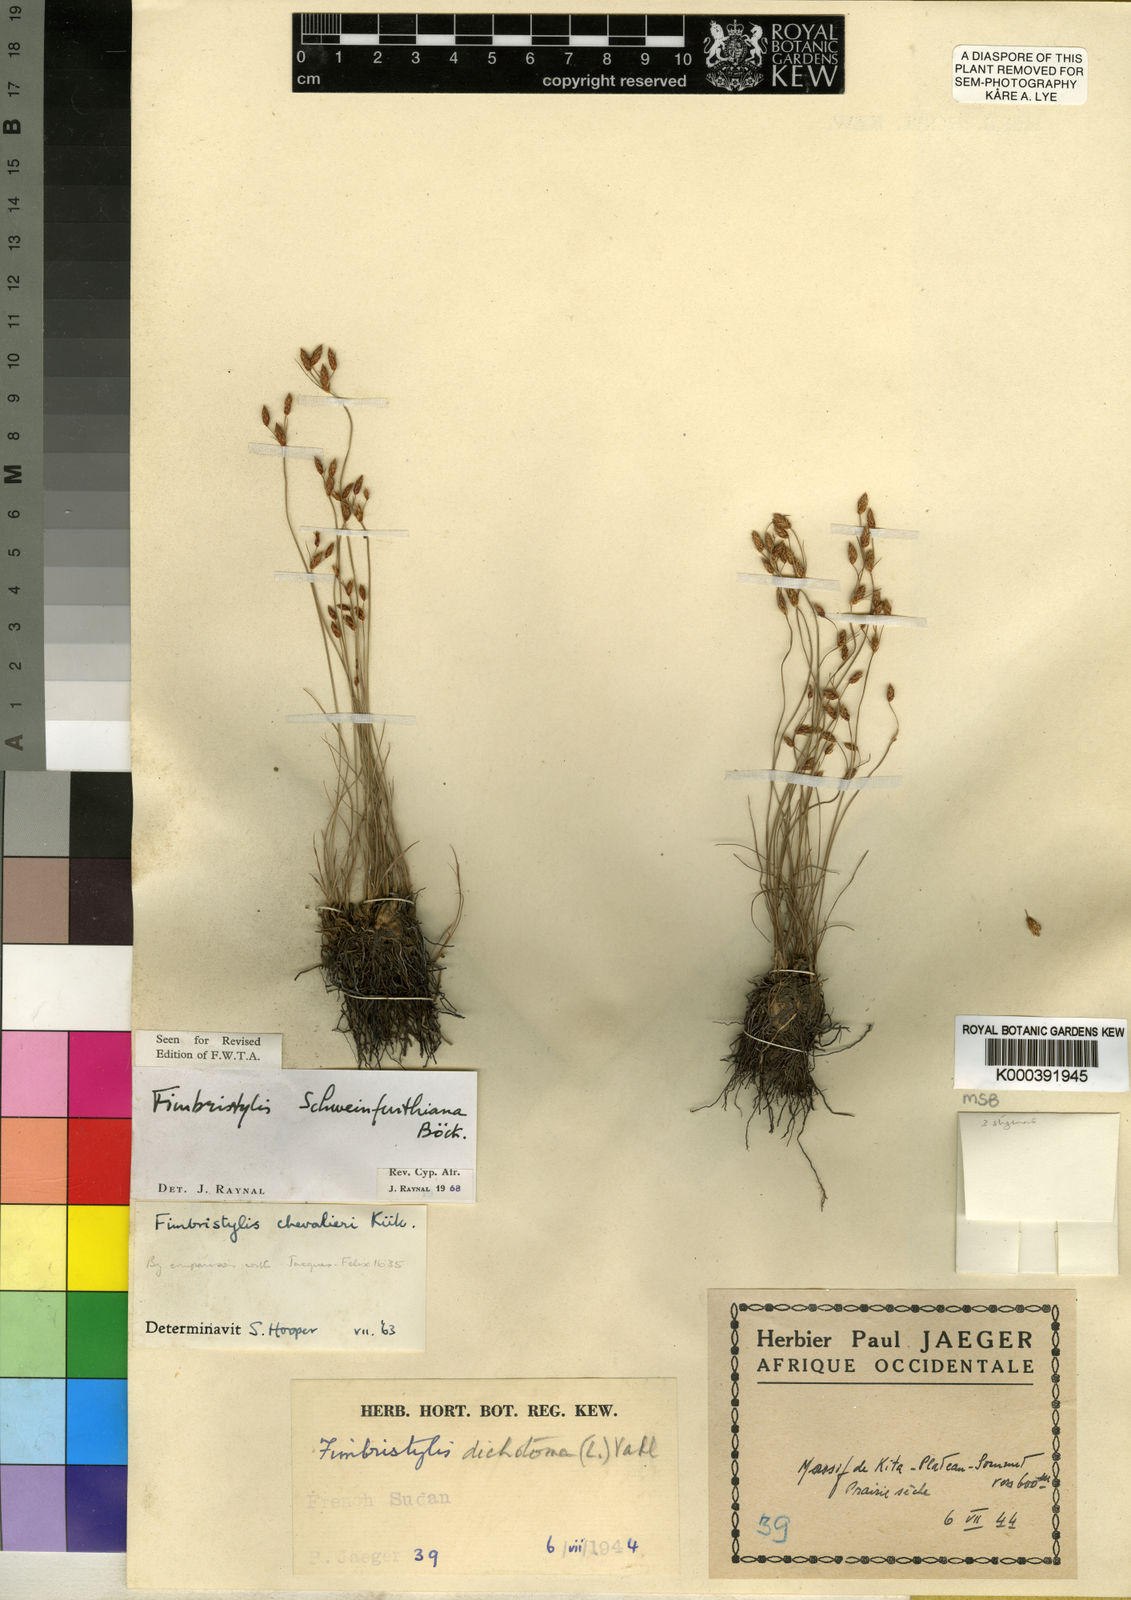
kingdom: Plantae
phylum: Tracheophyta
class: Liliopsida
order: Poales
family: Cyperaceae
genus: Fimbristylis
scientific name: Fimbristylis schweinfurthiana
